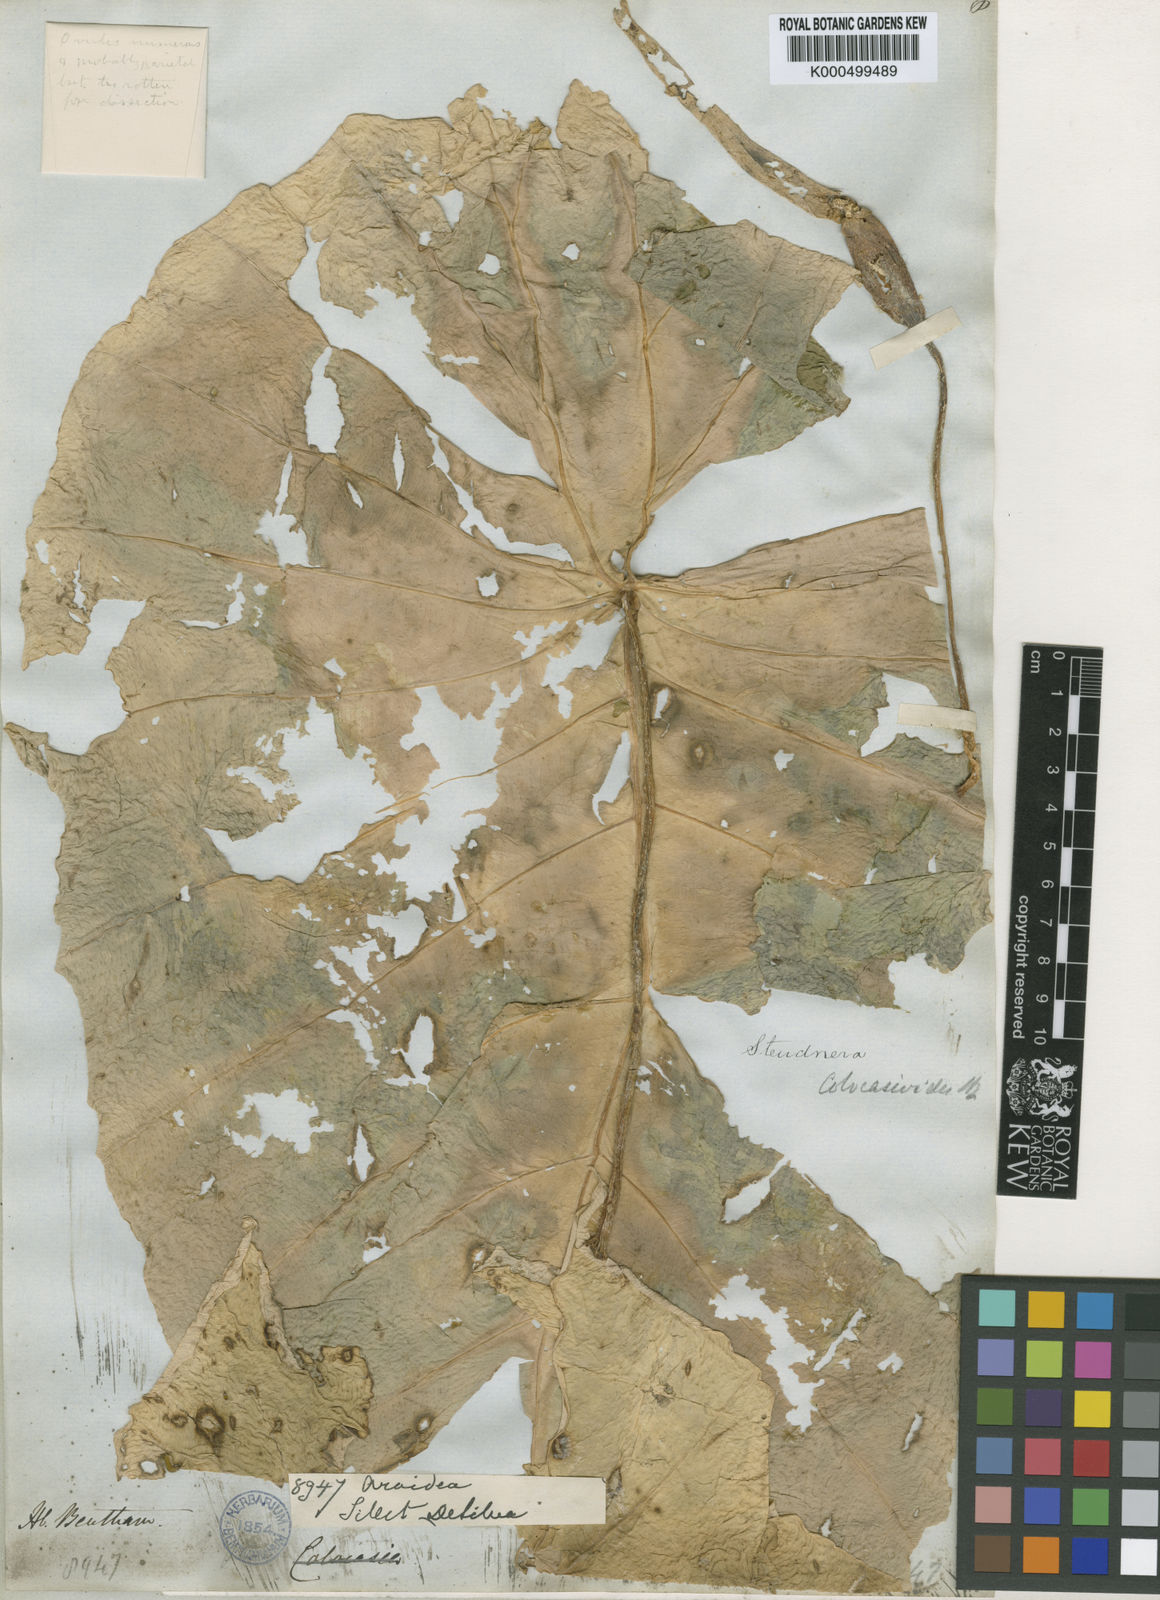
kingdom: Plantae
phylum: Tracheophyta
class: Liliopsida
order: Alismatales
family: Araceae
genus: Steudnera
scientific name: Steudnera colocasioides
